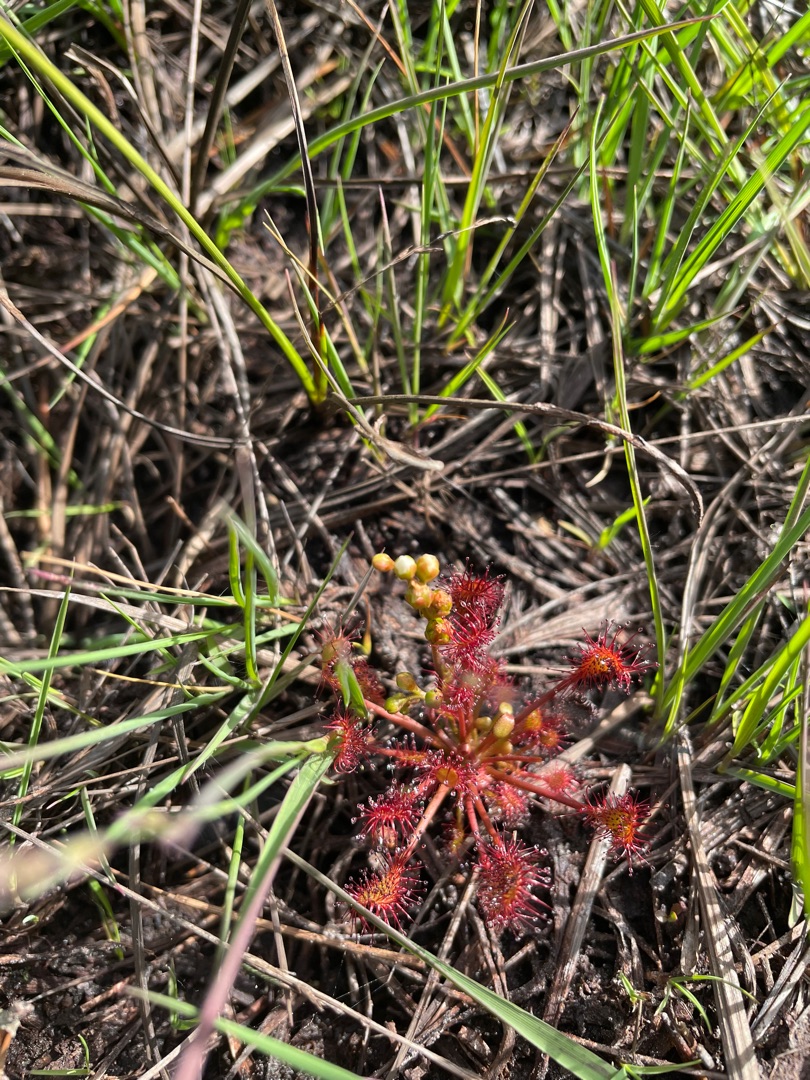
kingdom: Plantae
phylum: Tracheophyta
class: Magnoliopsida
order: Caryophyllales
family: Droseraceae
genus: Drosera
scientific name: Drosera intermedia
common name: Liden soldug
